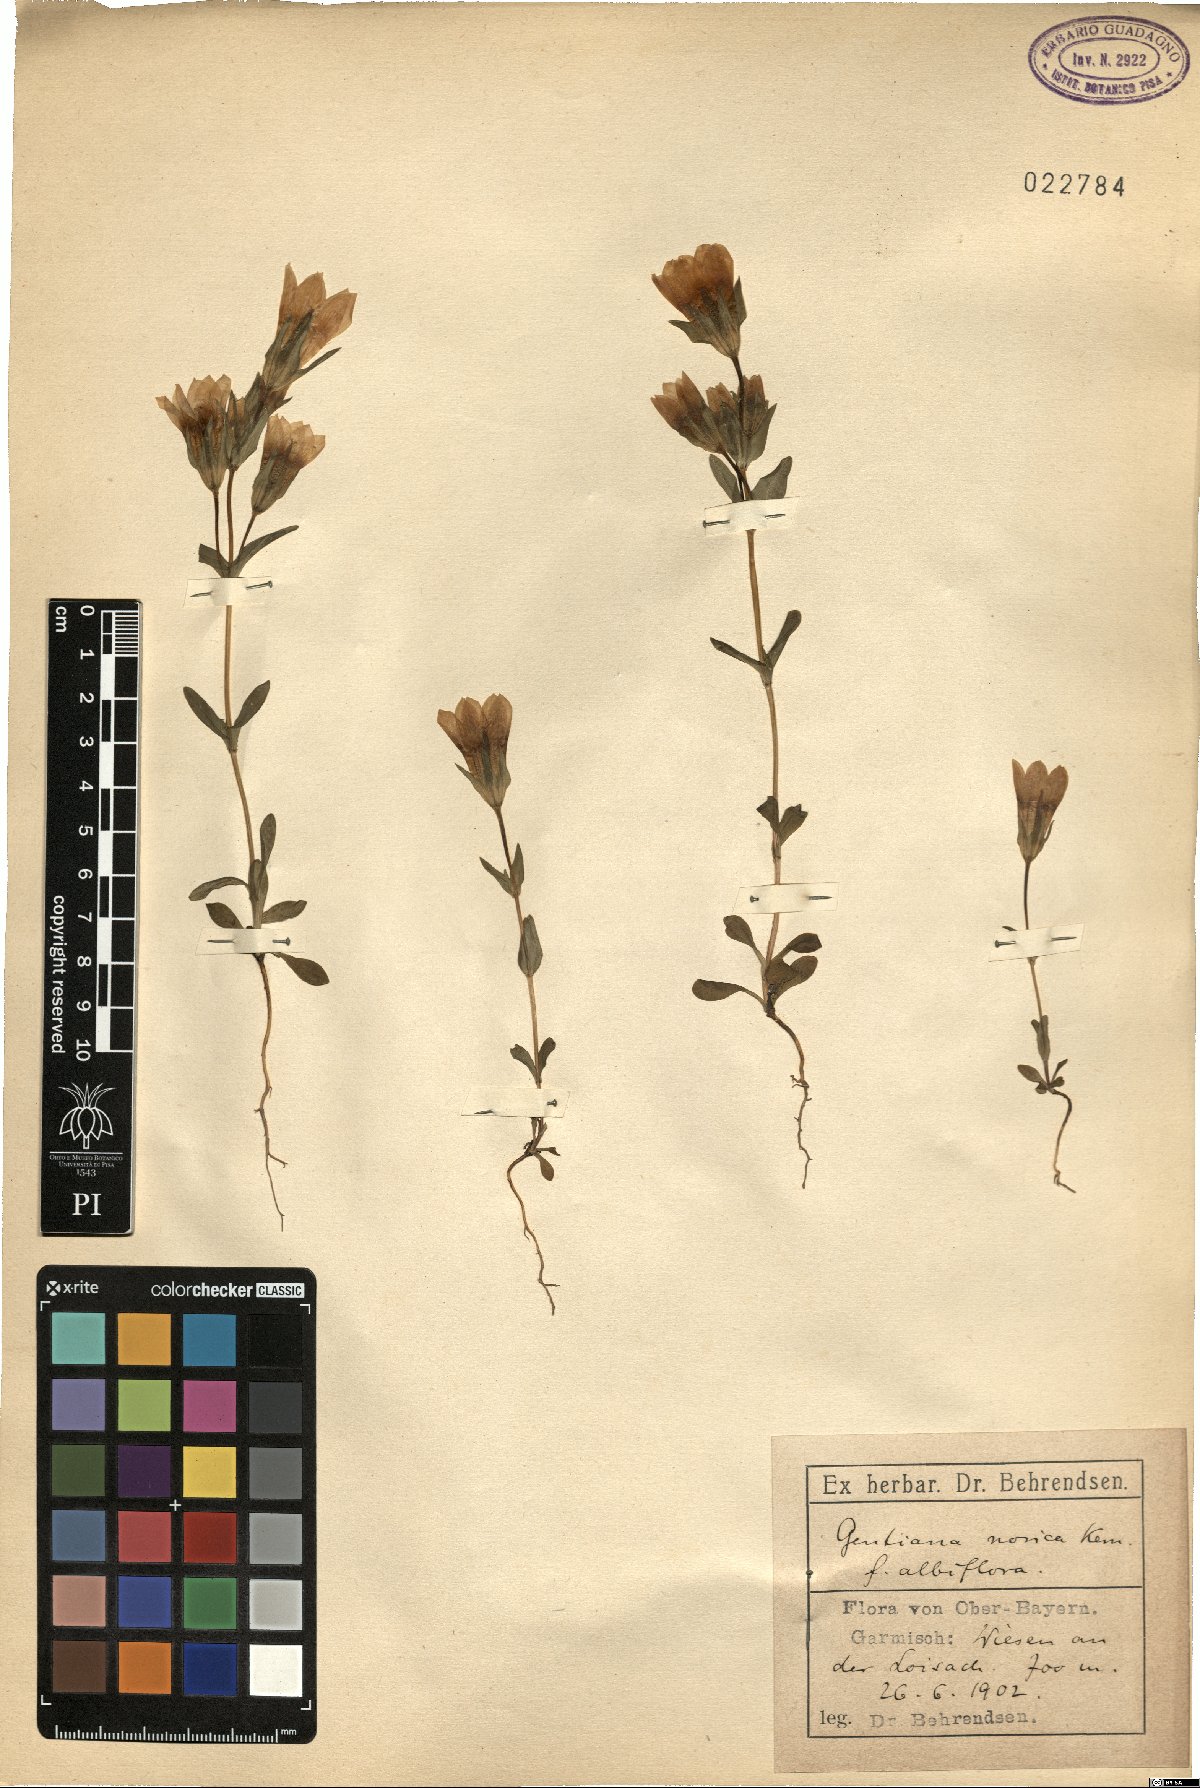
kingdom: Plantae
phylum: Tracheophyta
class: Magnoliopsida
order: Gentianales
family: Gentianaceae
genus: Gentianella
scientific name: Gentianella obtusifolia
